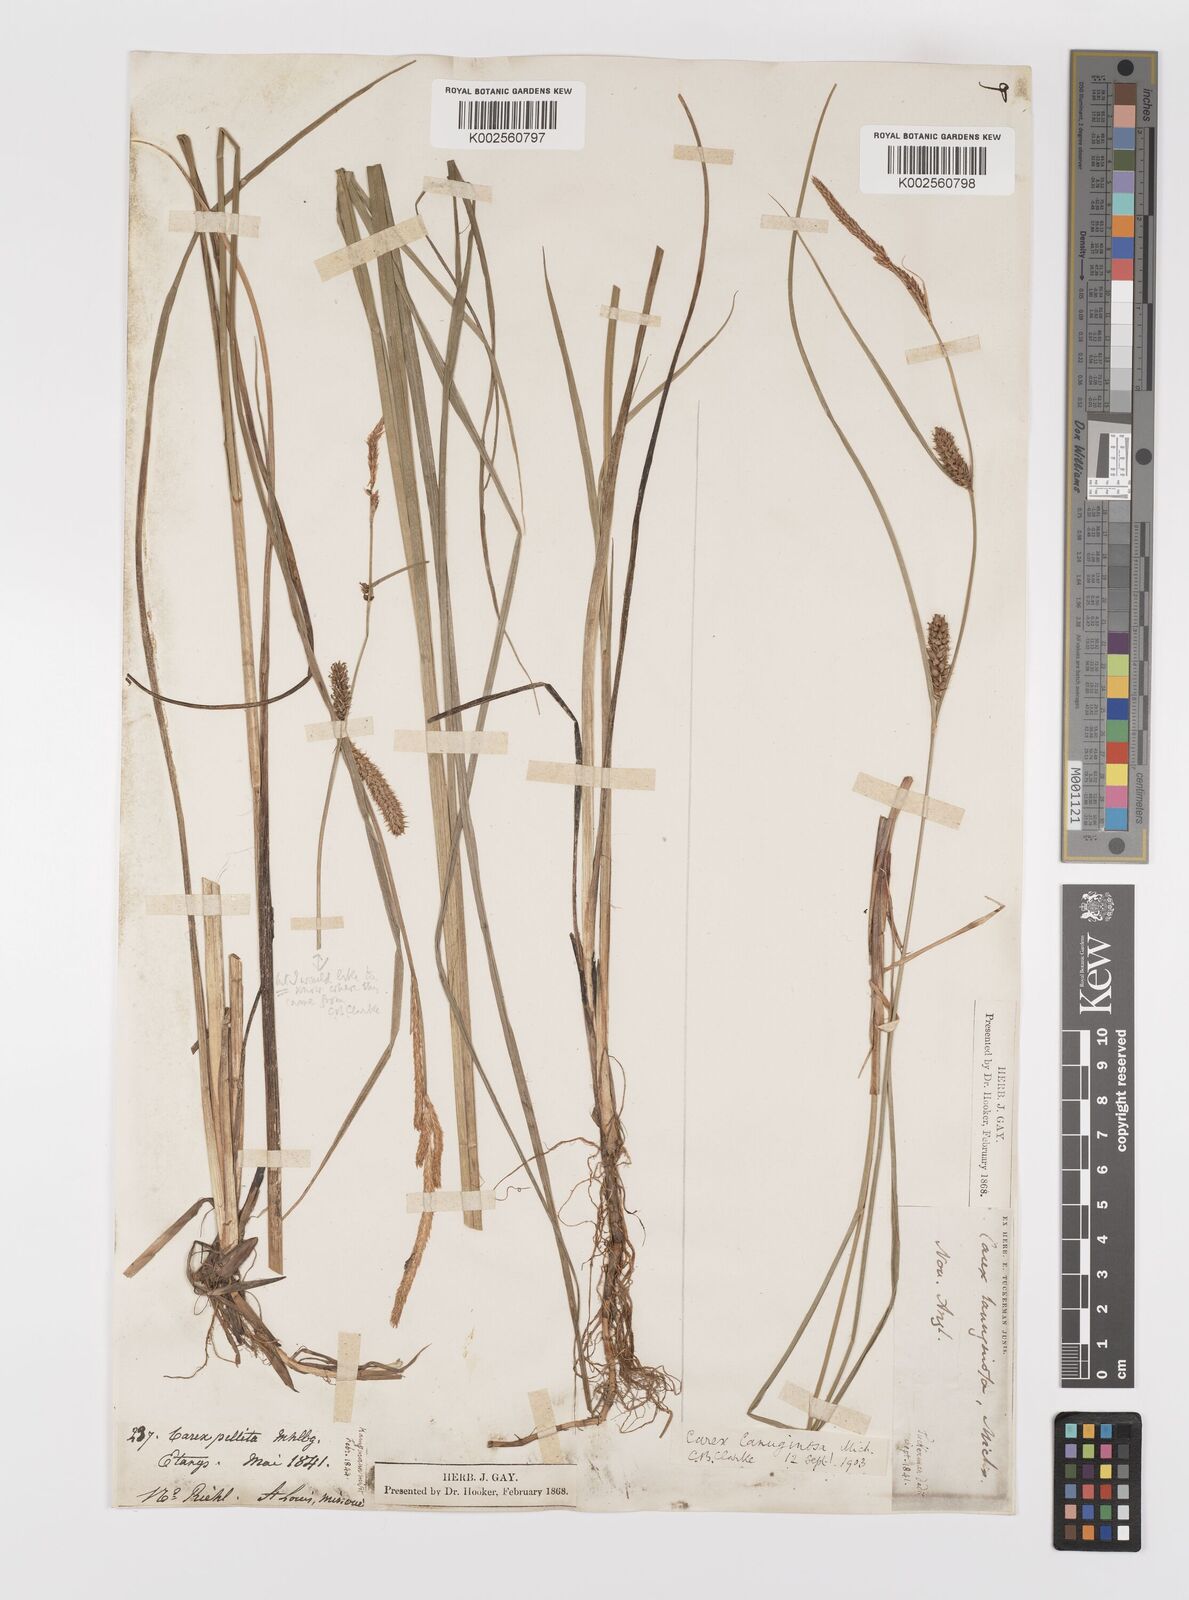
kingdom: Plantae
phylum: Tracheophyta
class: Liliopsida
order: Poales
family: Cyperaceae
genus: Carex
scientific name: Carex lasiocarpa
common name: Slender sedge
